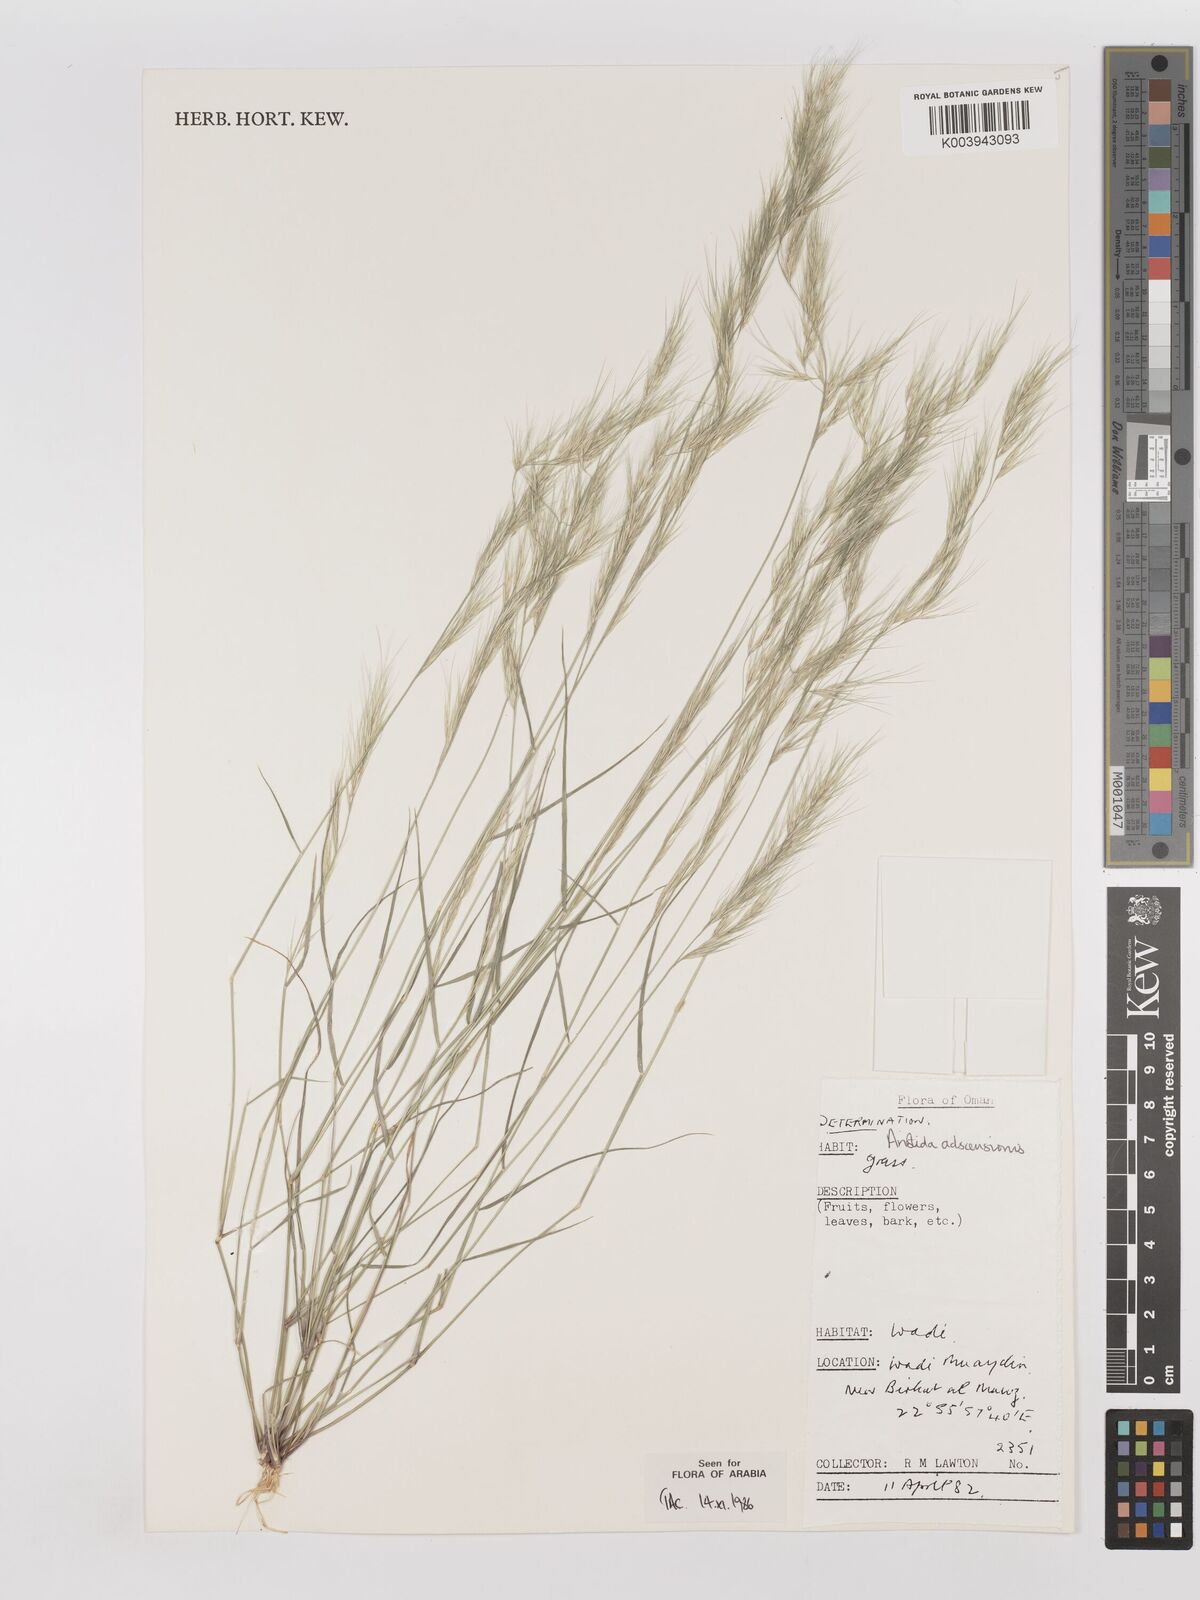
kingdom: Plantae
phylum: Tracheophyta
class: Liliopsida
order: Poales
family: Poaceae
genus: Aristida
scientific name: Aristida adscensionis
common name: Sixweeks threeawn
